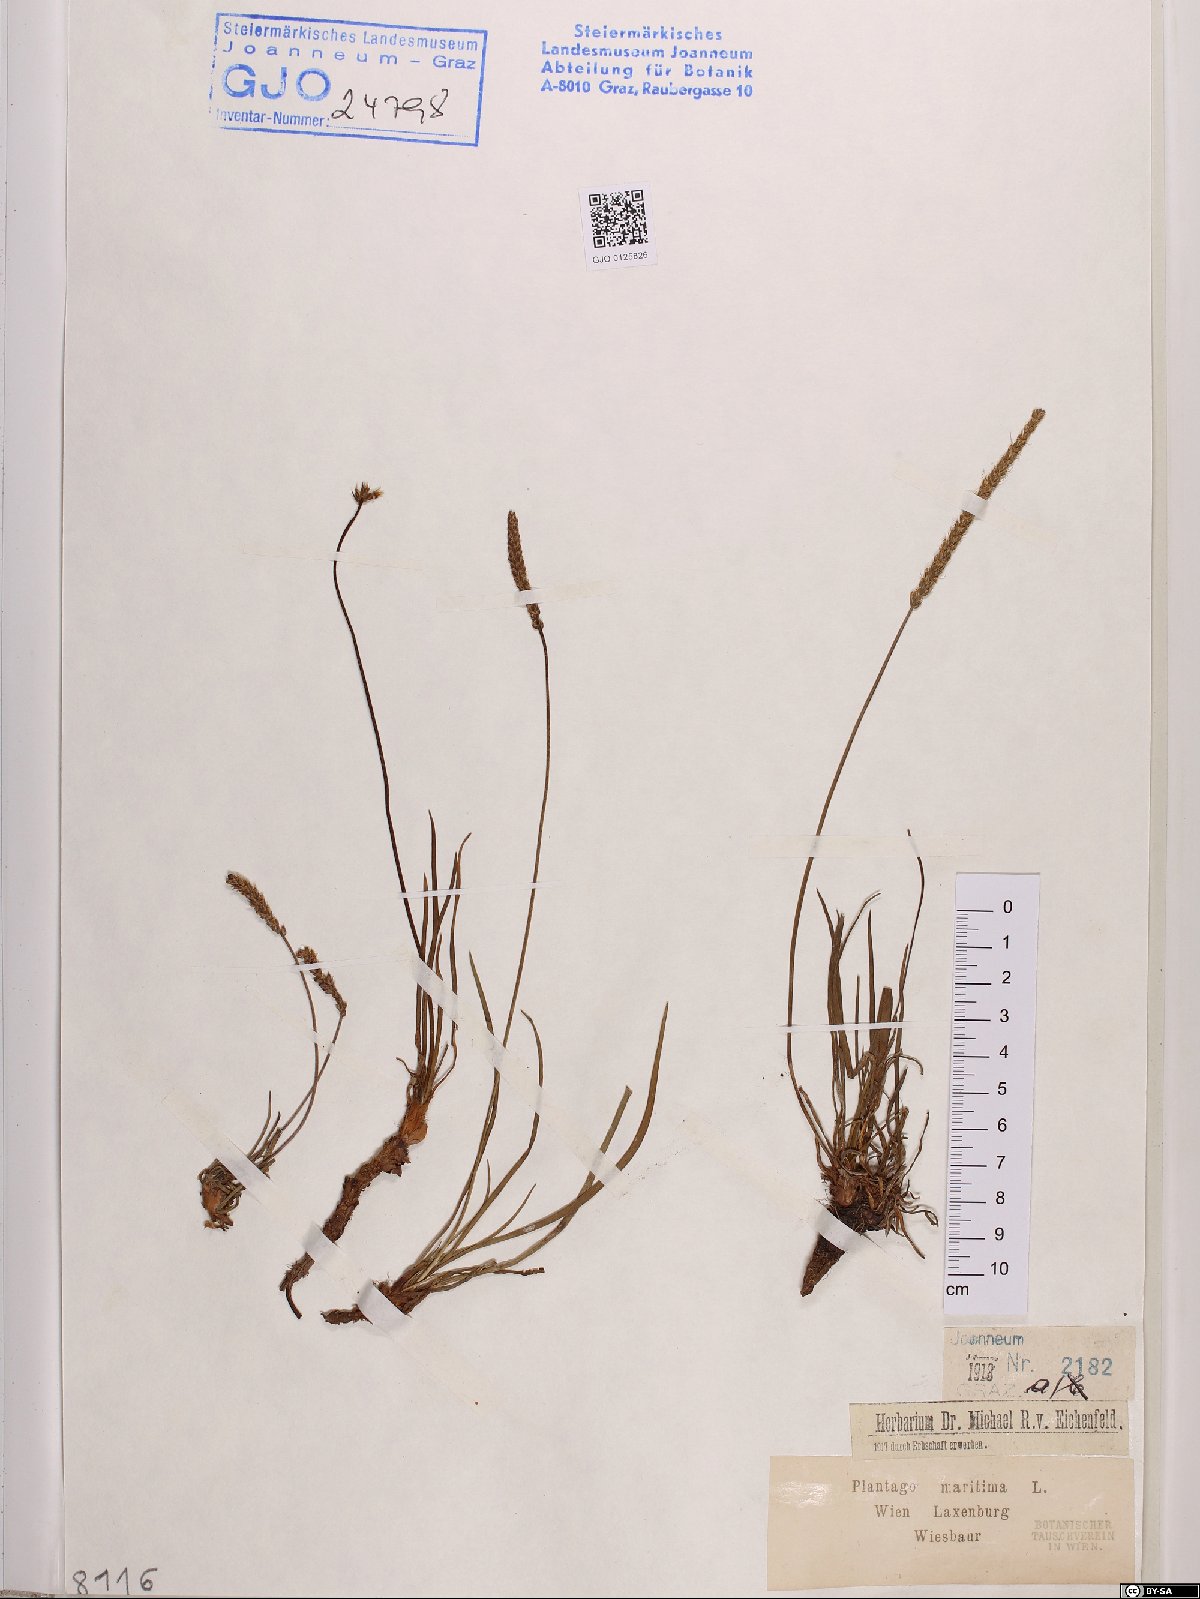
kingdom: Plantae
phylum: Tracheophyta
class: Magnoliopsida
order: Lamiales
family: Plantaginaceae
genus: Plantago
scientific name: Plantago maritima
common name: Sea plantain
